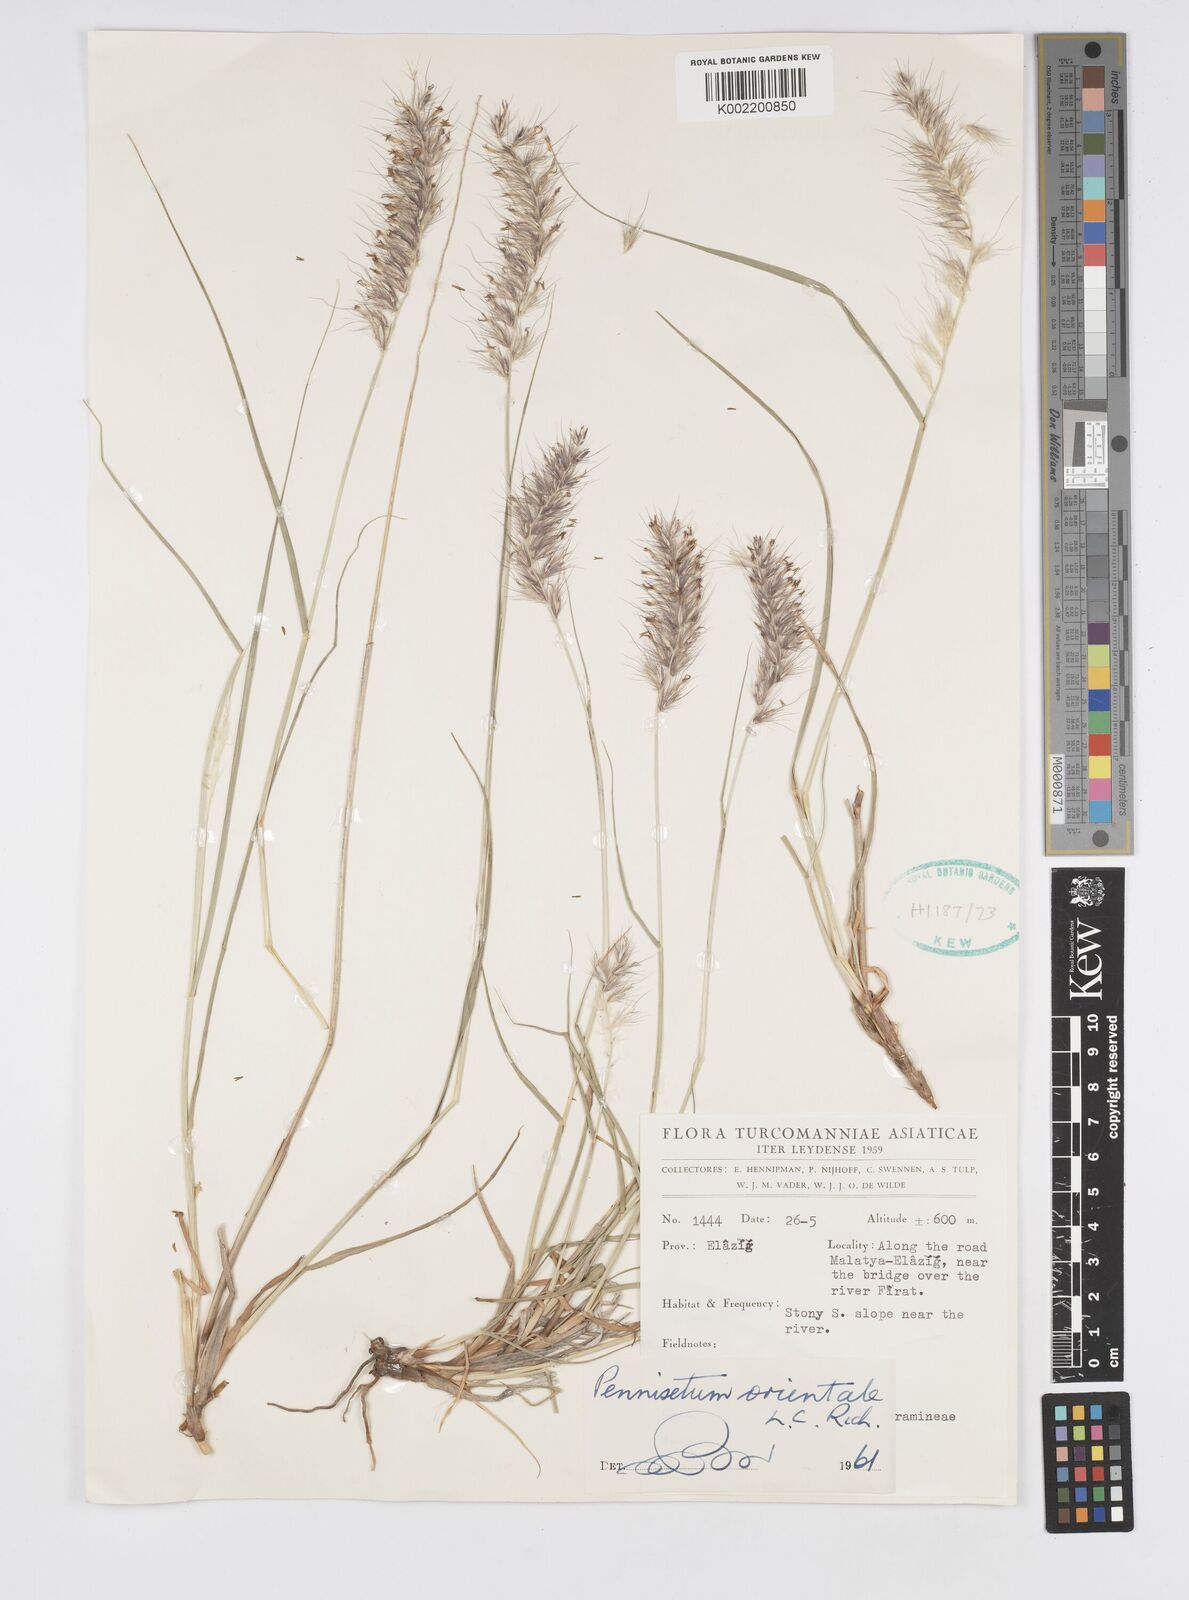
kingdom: Plantae
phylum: Tracheophyta
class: Liliopsida
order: Poales
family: Poaceae
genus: Cenchrus
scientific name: Cenchrus orientalis
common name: Oriental fountain grass
